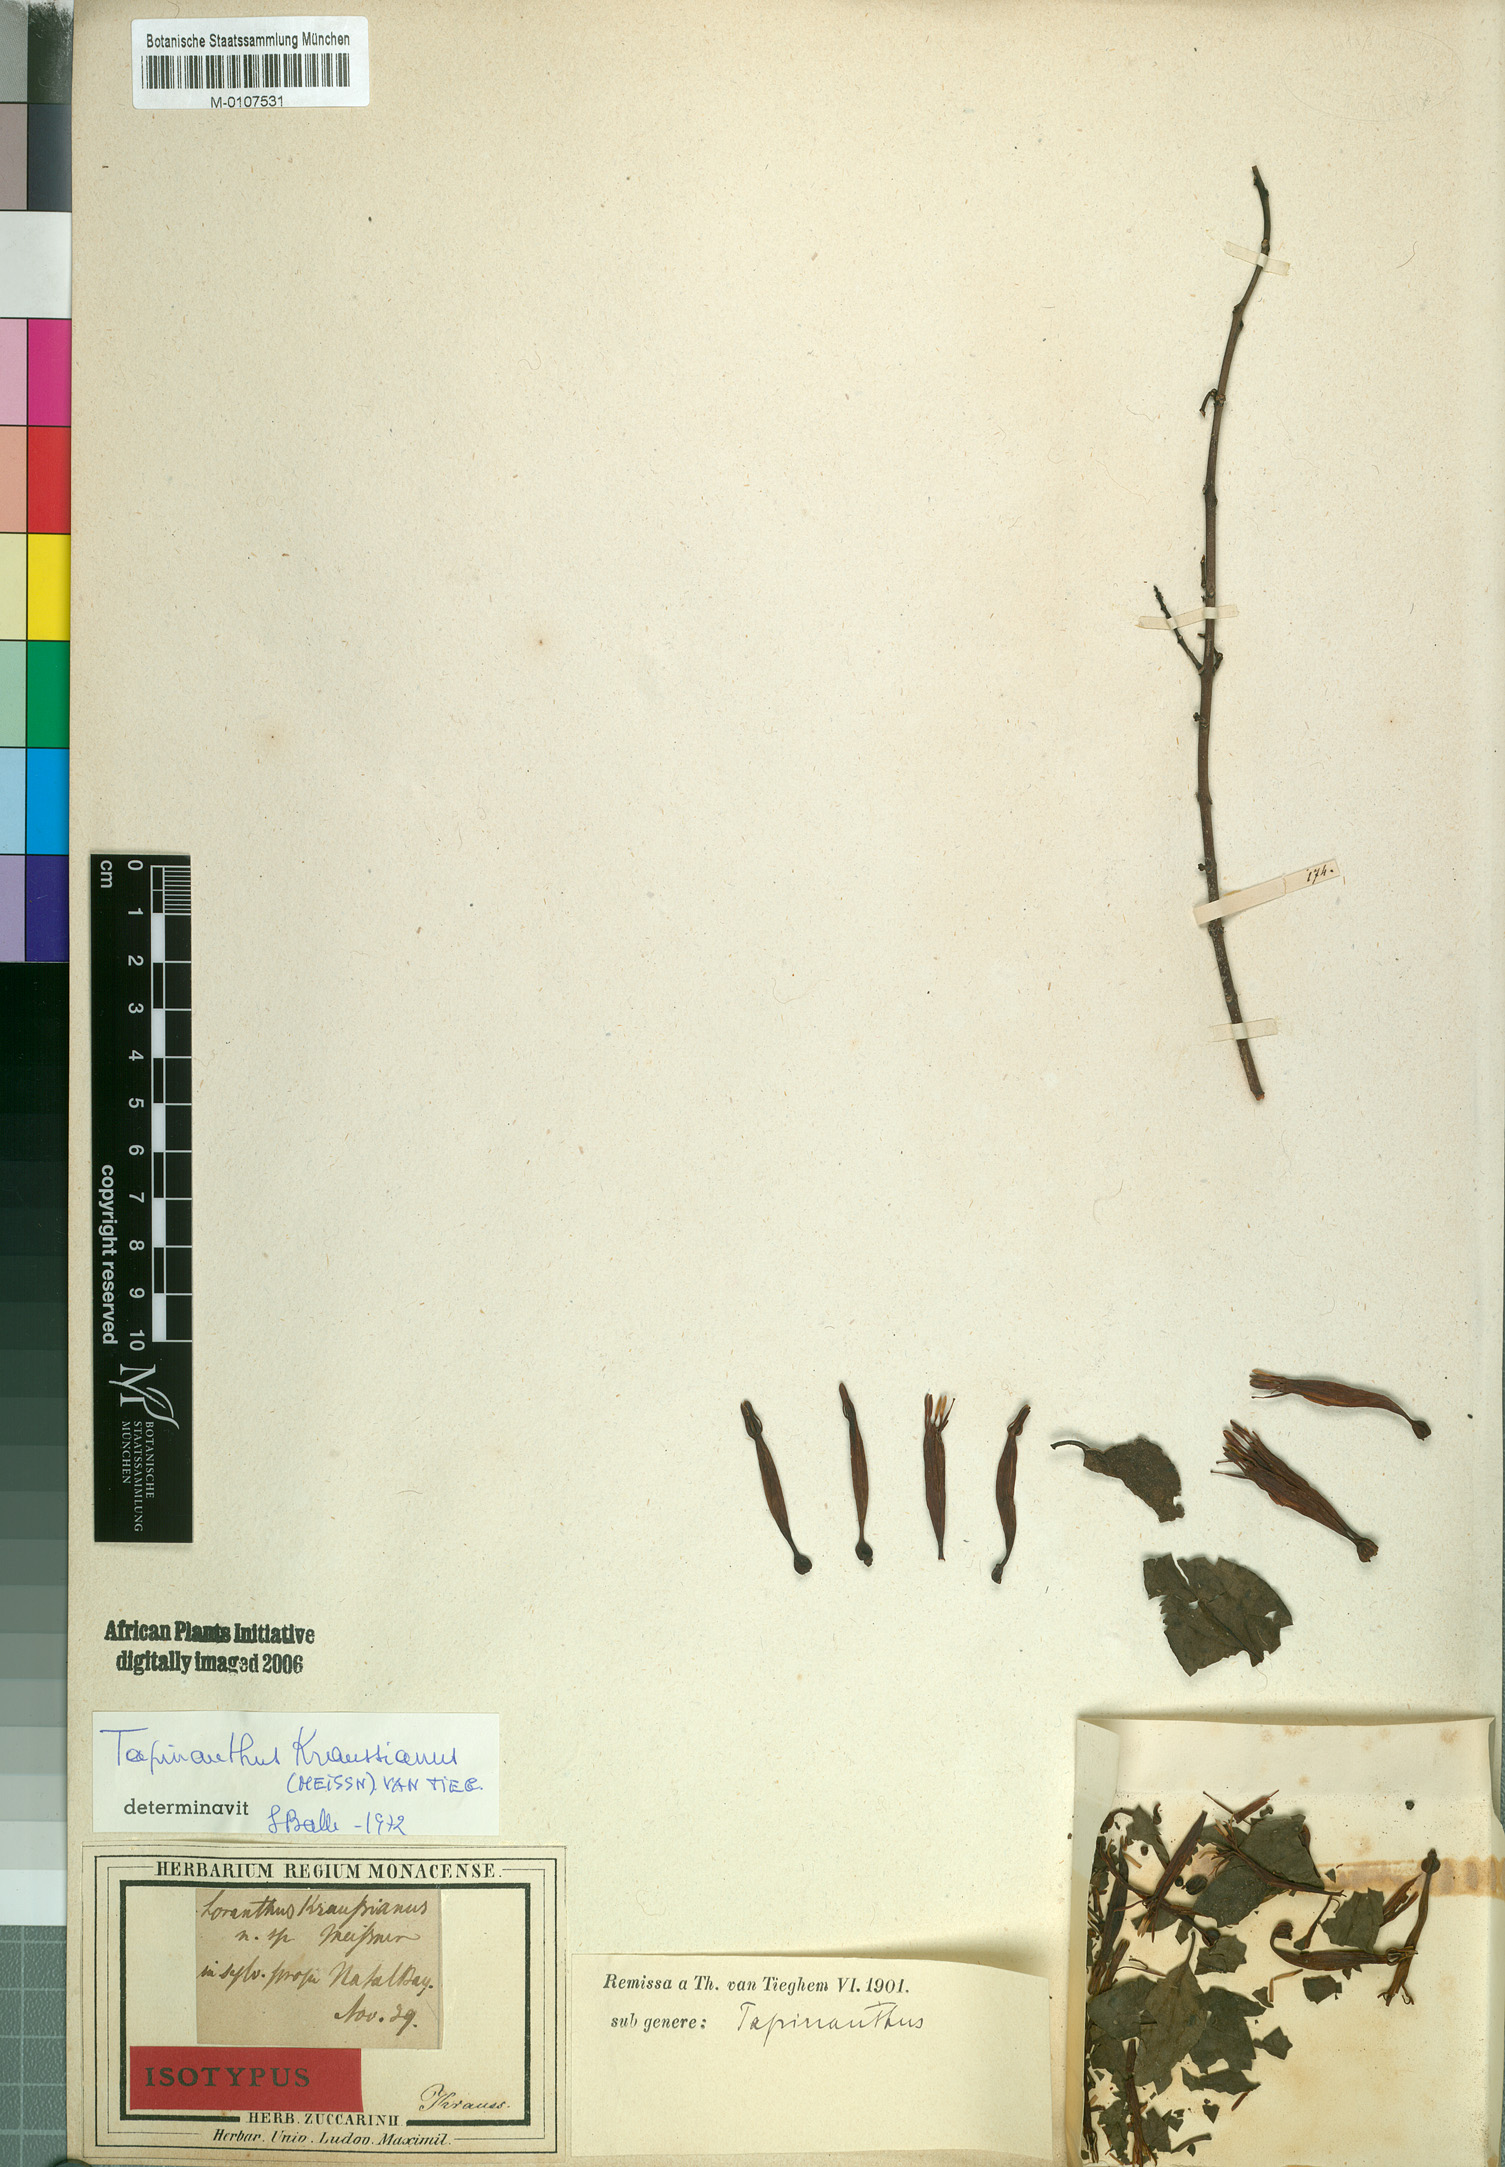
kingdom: Plantae
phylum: Tracheophyta
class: Magnoliopsida
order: Santalales
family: Loranthaceae
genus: Agelanthus
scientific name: Agelanthus kraussianus
